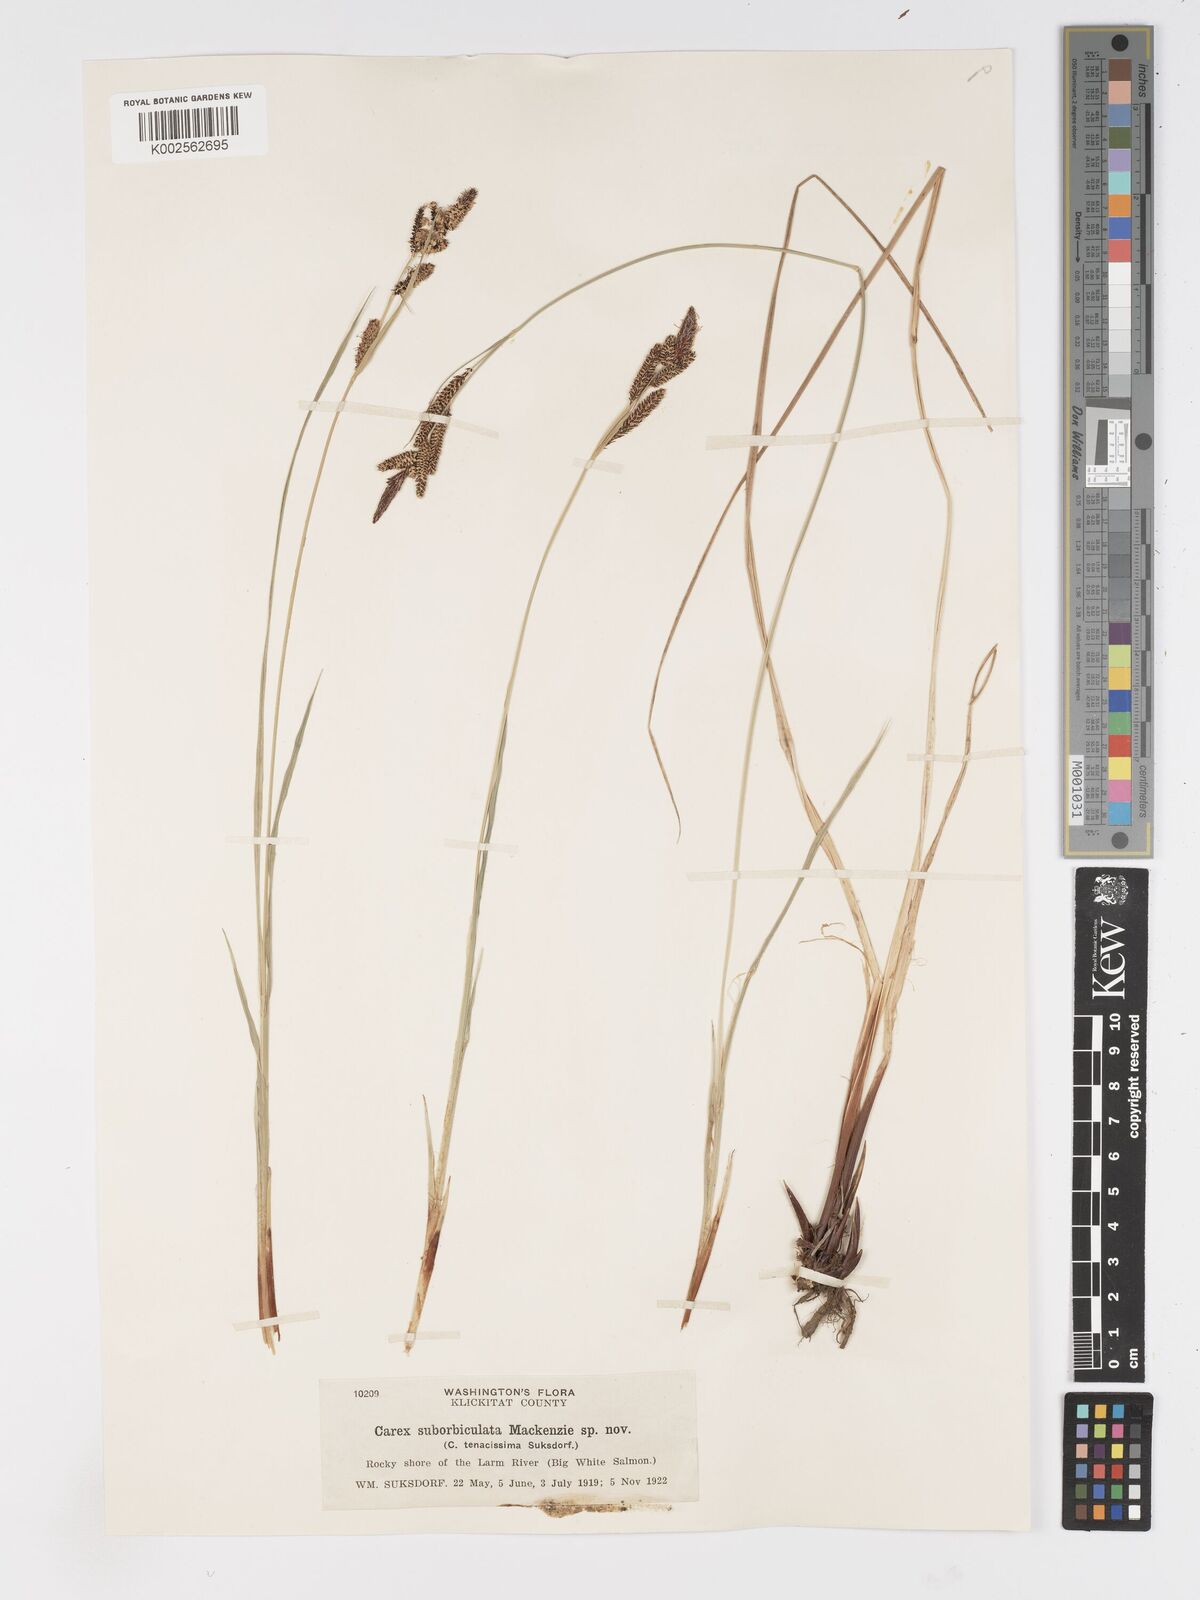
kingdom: Plantae
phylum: Tracheophyta
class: Liliopsida
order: Poales
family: Cyperaceae
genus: Carex
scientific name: Carex nudata
